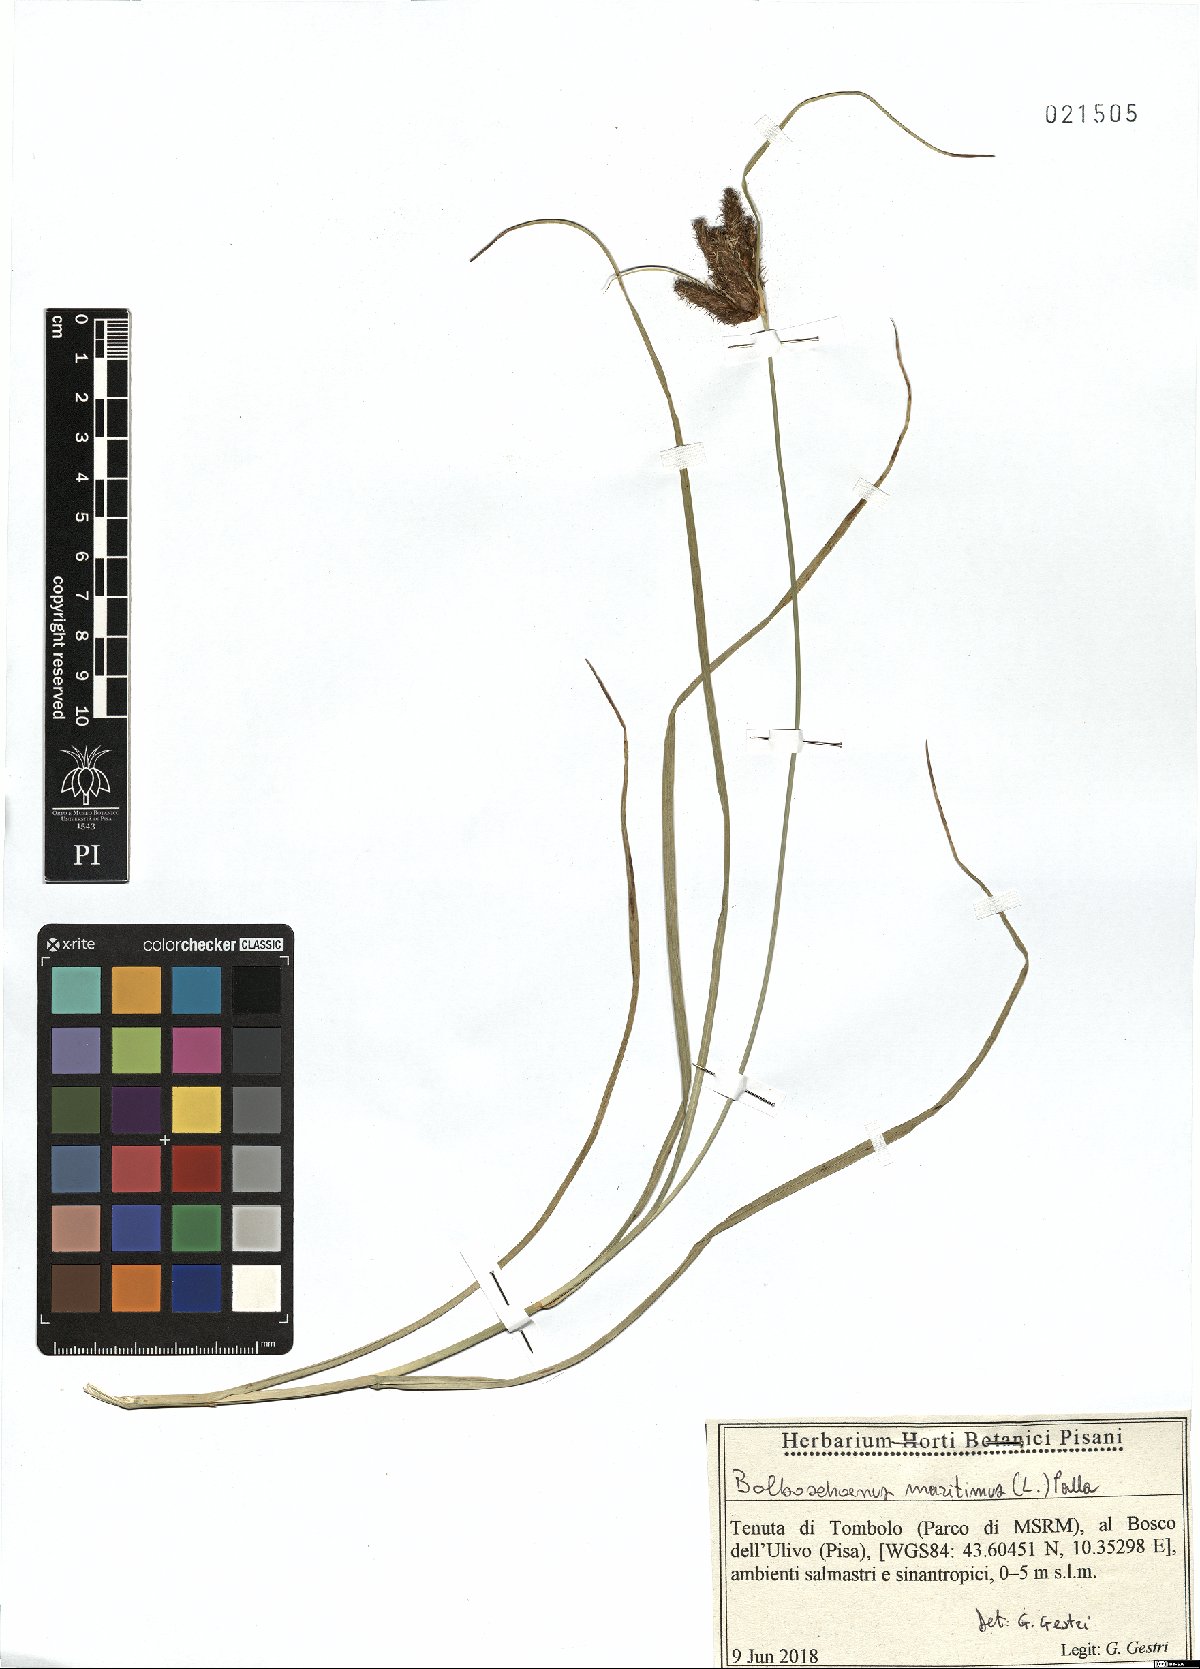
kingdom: Plantae
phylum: Tracheophyta
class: Liliopsida
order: Poales
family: Cyperaceae
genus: Bolboschoenus
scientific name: Bolboschoenus maritimus
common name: Sea club-rush
